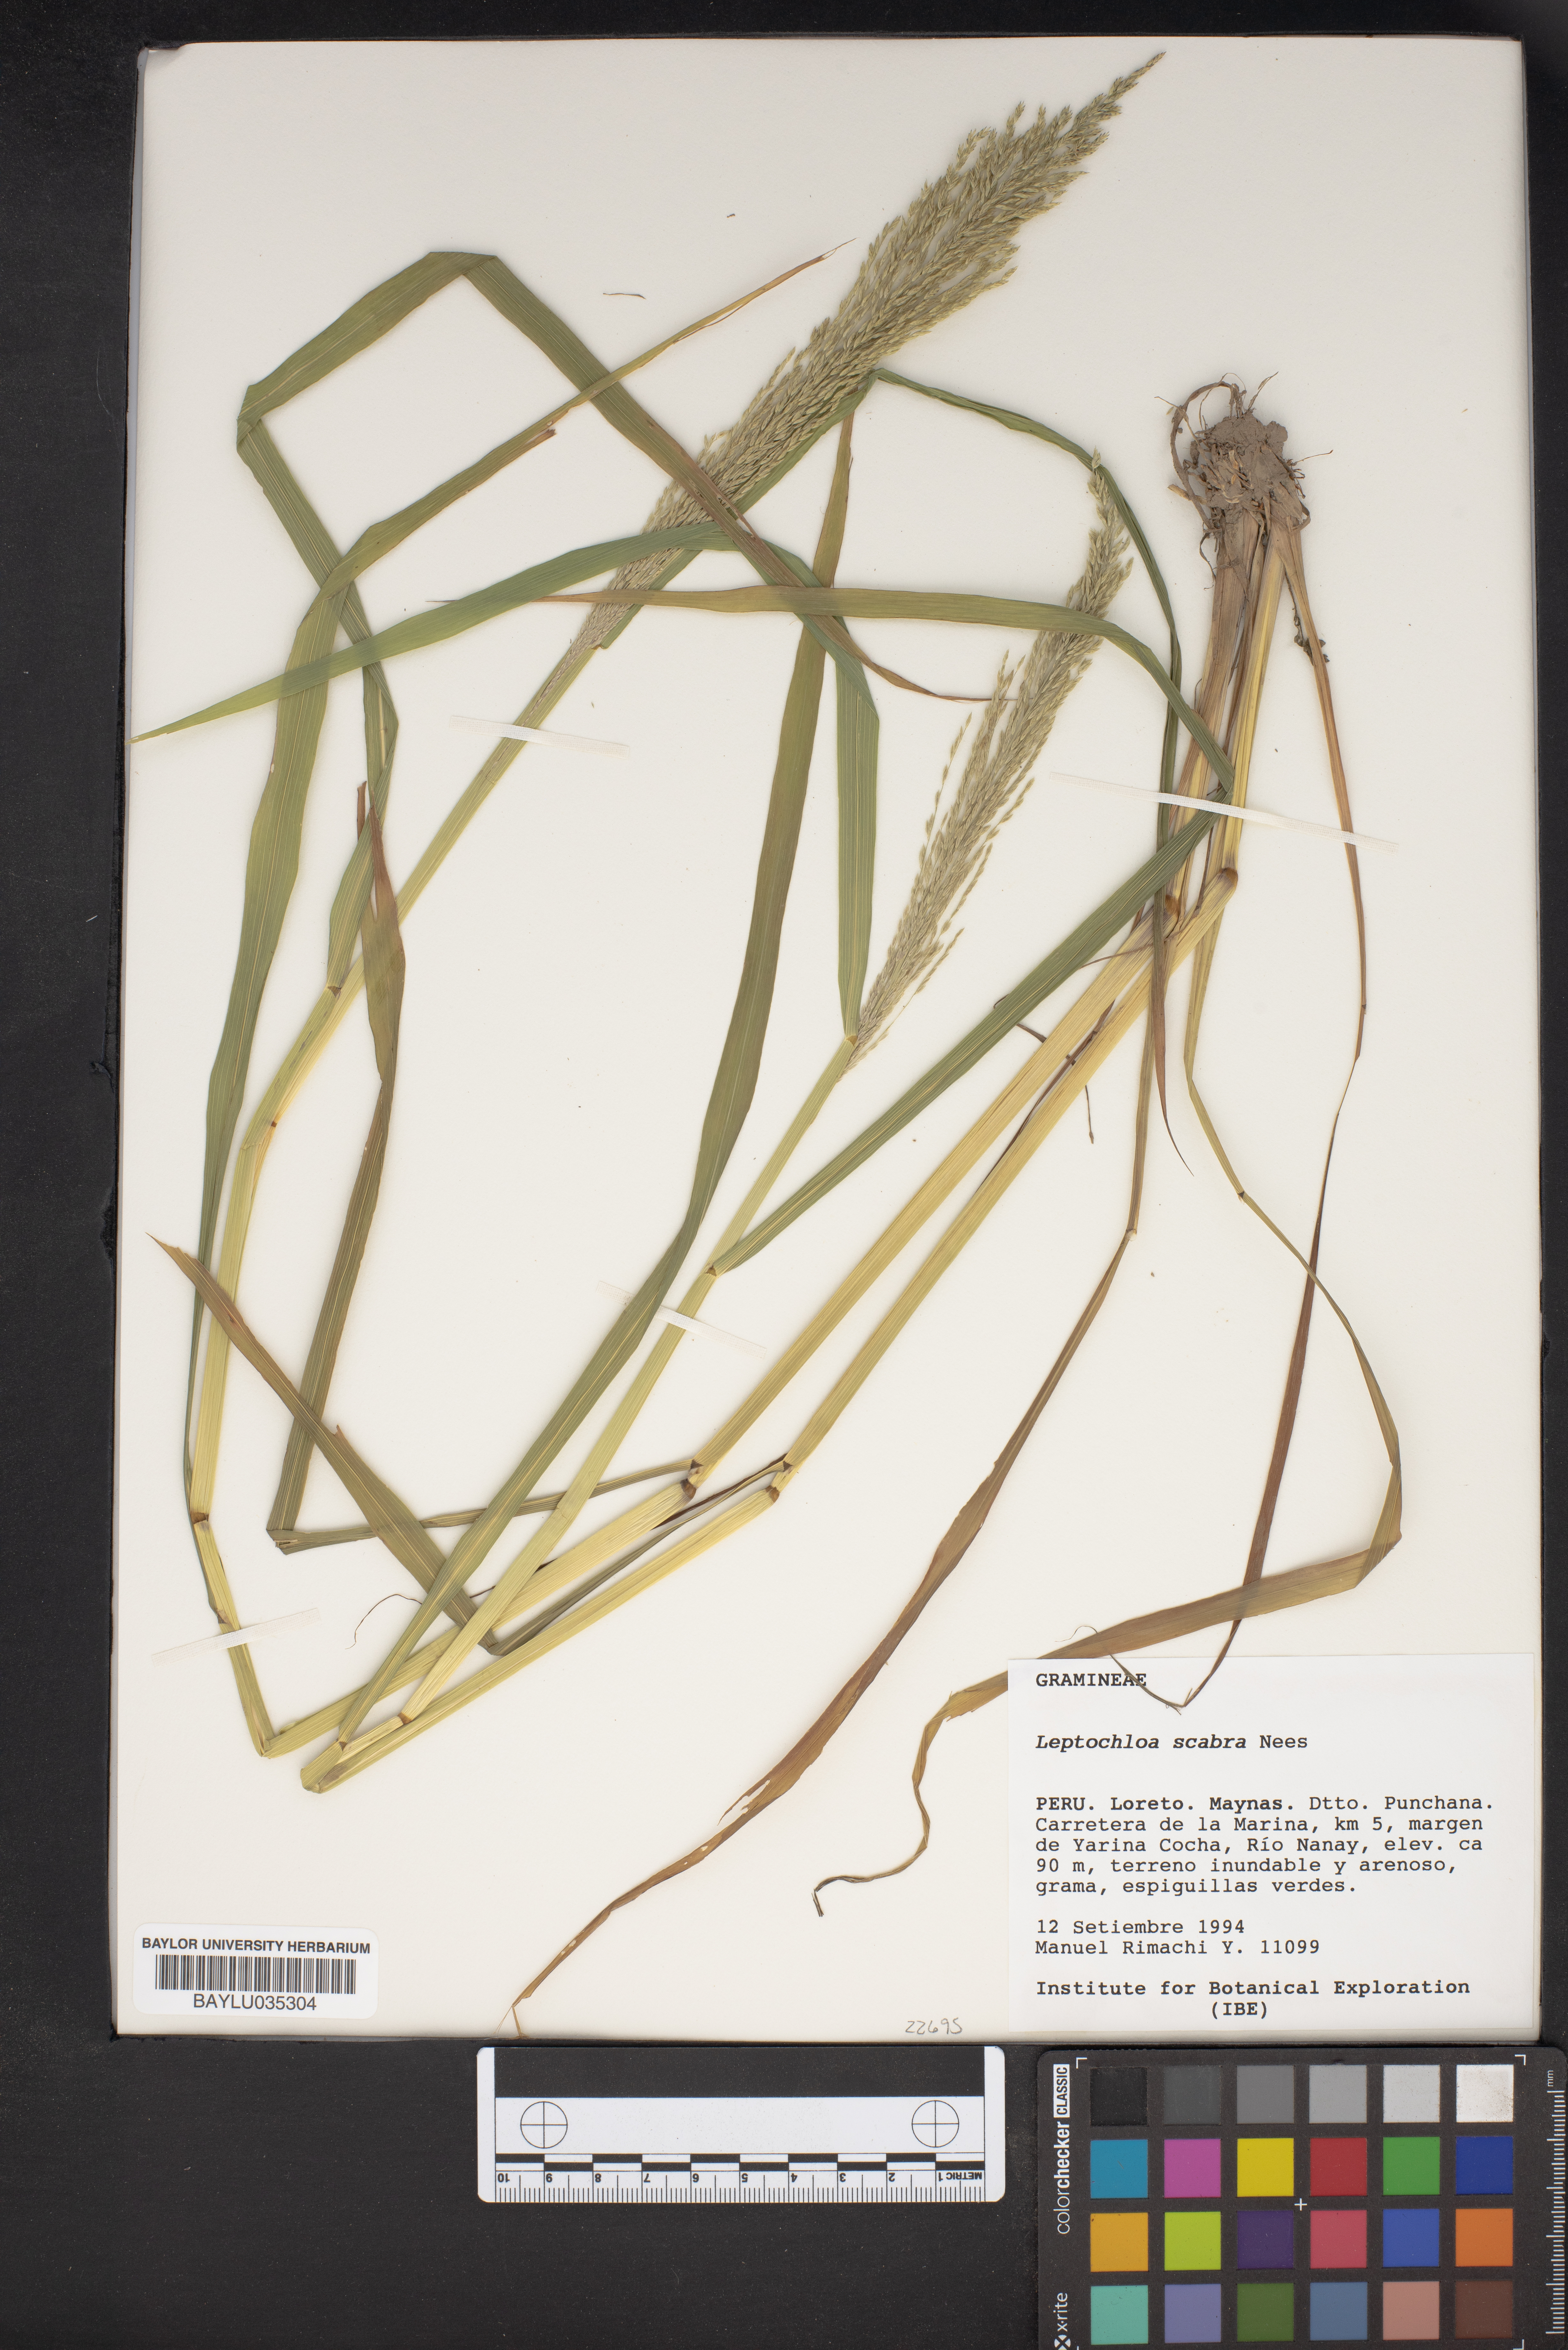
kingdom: Plantae
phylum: Tracheophyta
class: Liliopsida
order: Poales
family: Poaceae
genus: Leptochloa
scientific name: Leptochloa scabra
